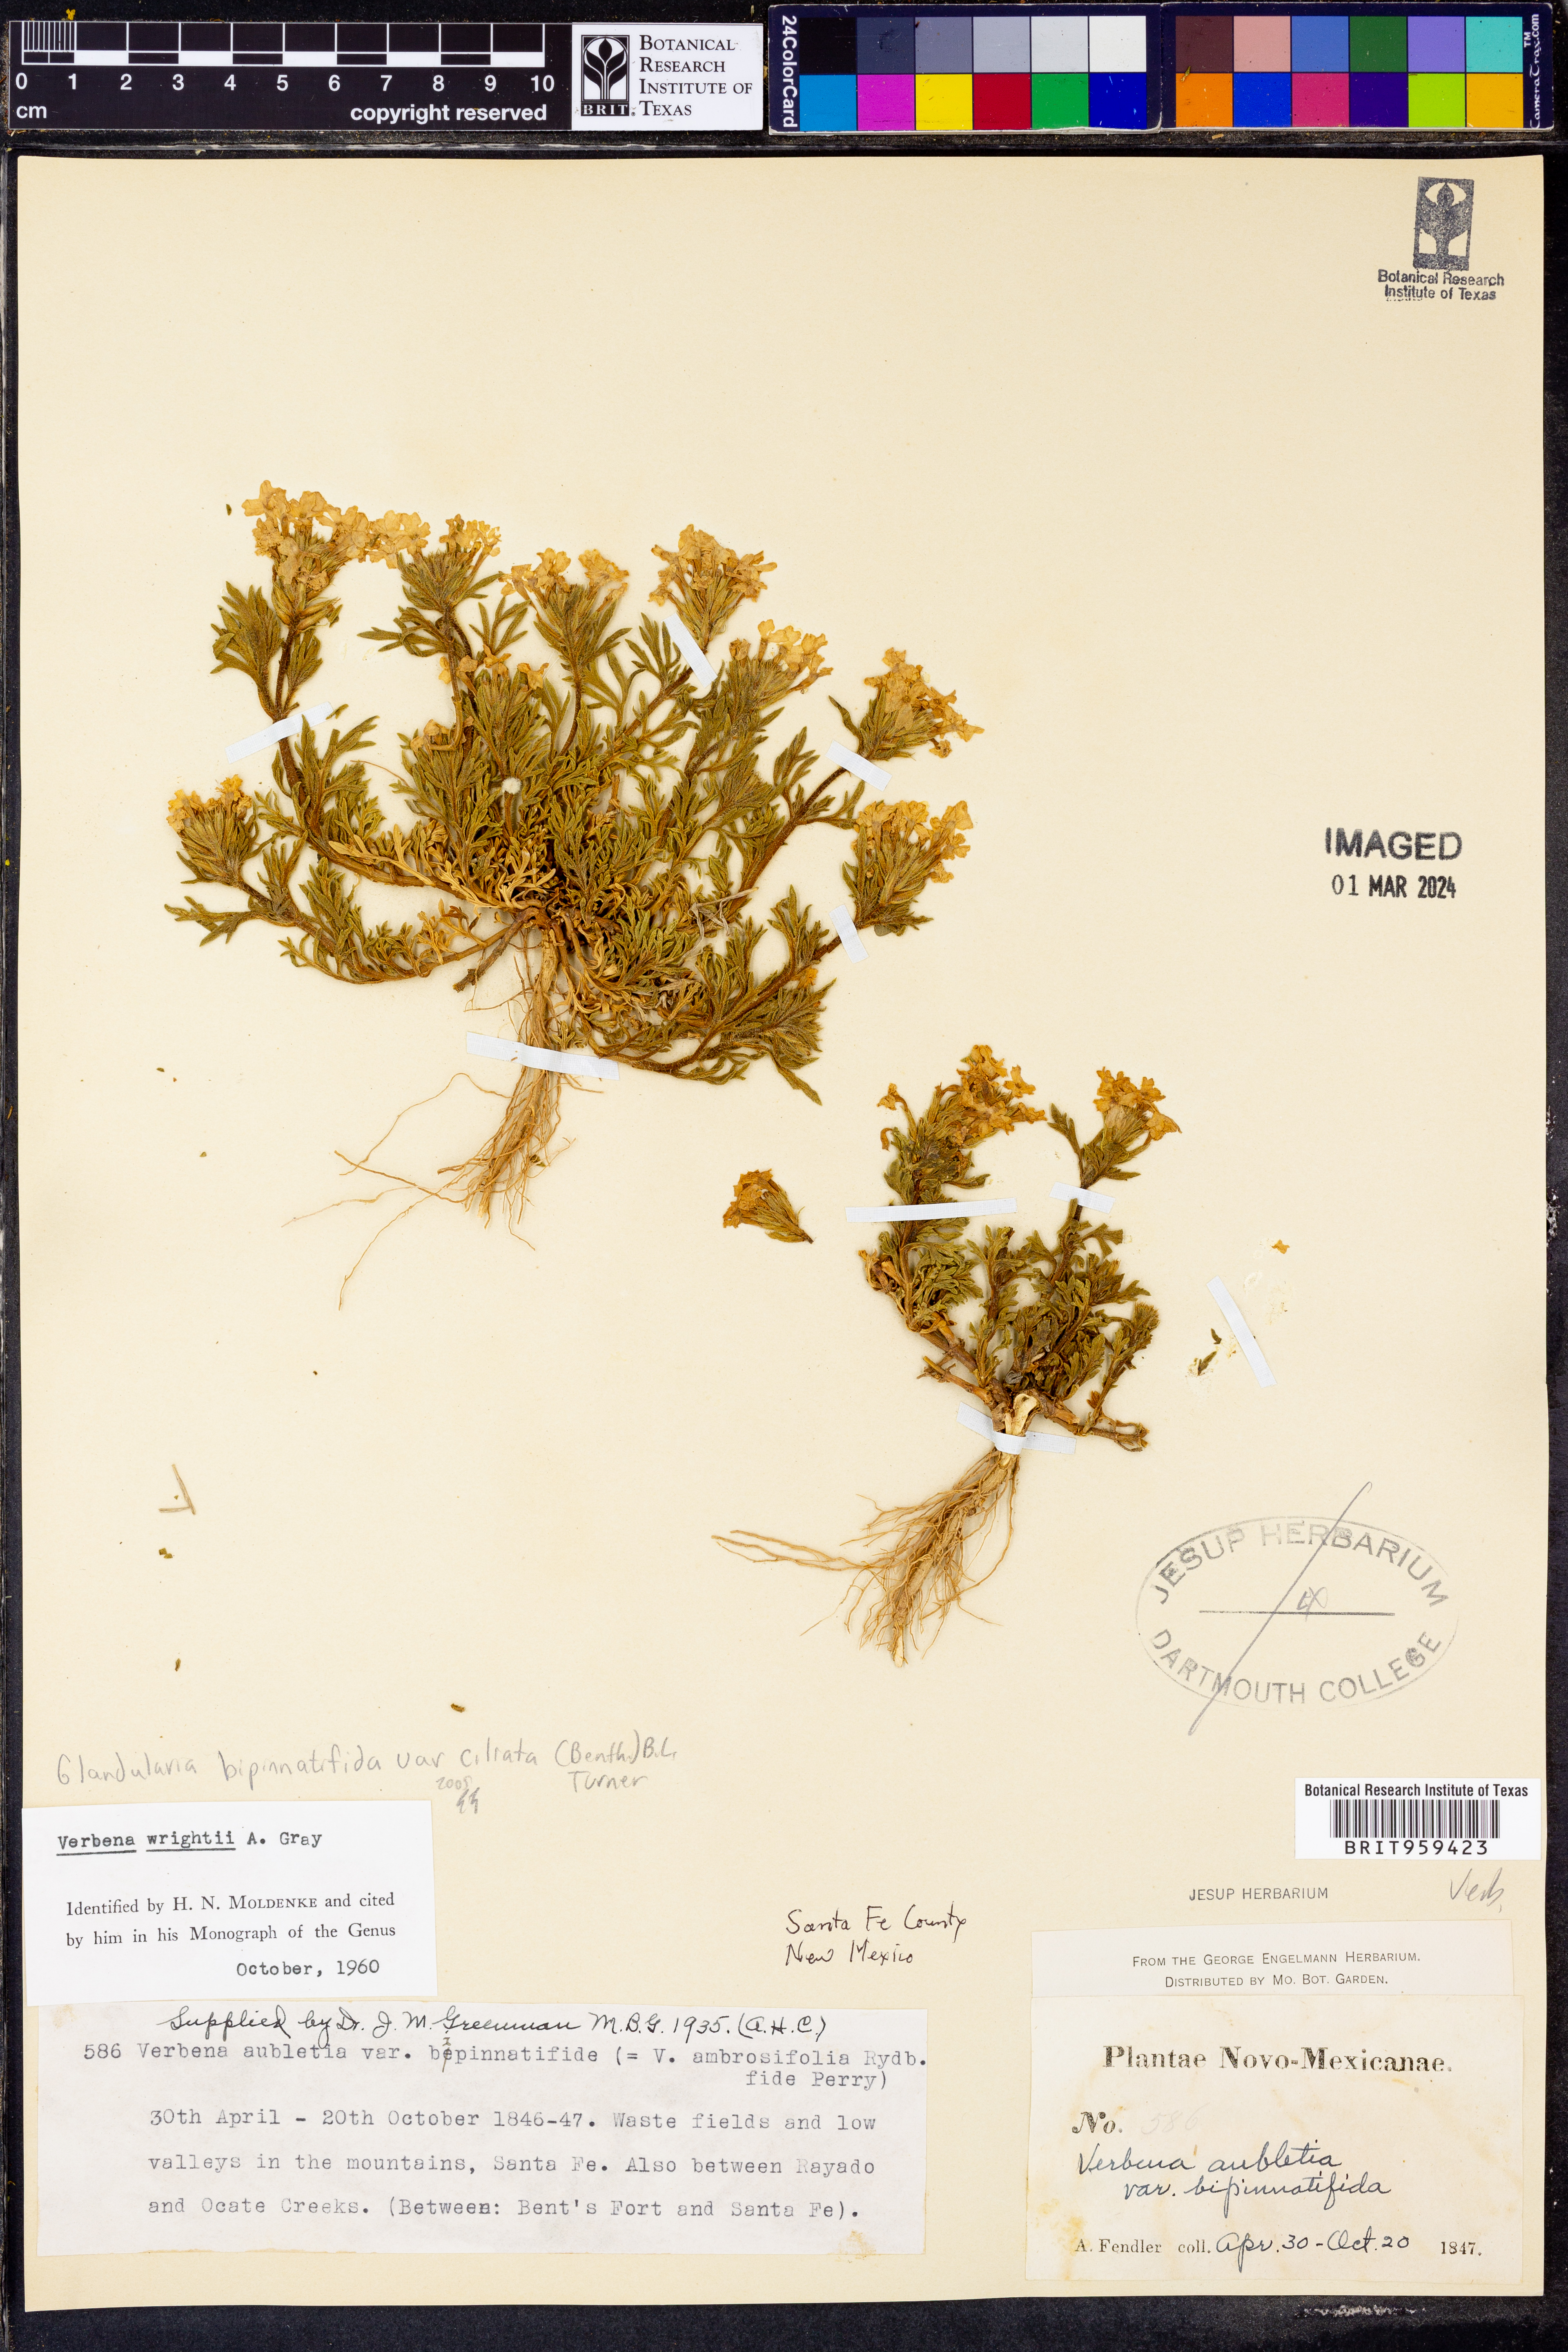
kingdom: Plantae
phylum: Tracheophyta
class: Magnoliopsida
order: Lamiales
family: Verbenaceae
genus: Verbena
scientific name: Verbena bipinnatifida
